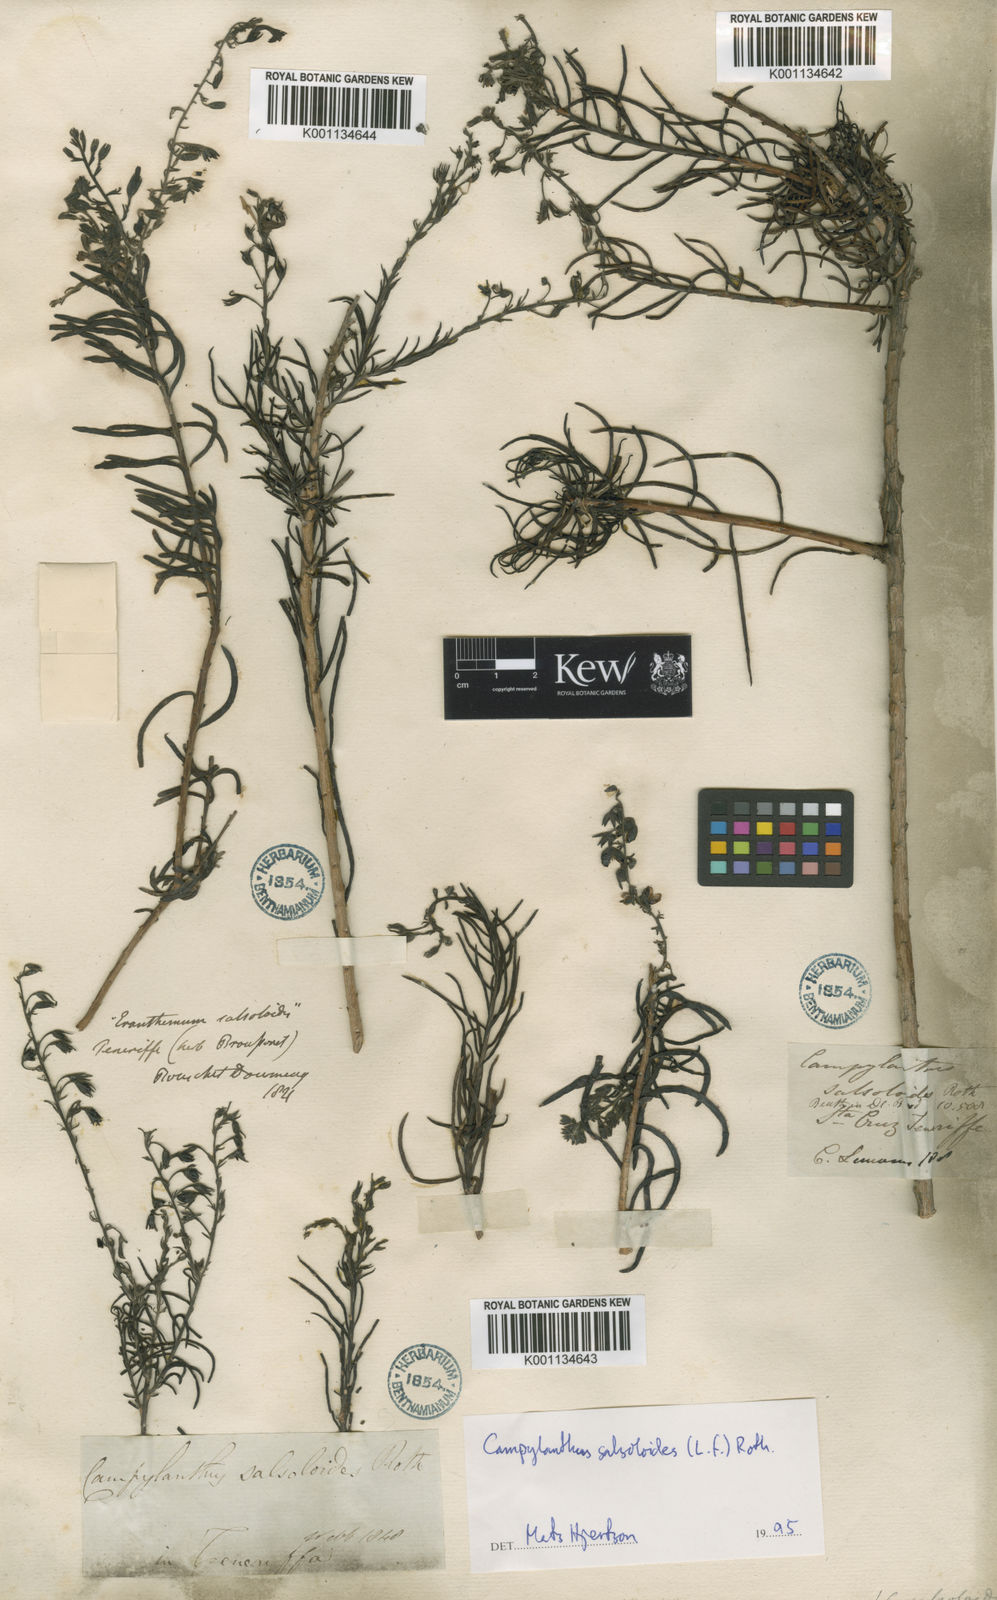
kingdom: Plantae
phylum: Tracheophyta
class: Magnoliopsida
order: Lamiales
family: Plantaginaceae
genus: Campylanthus
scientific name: Campylanthus
